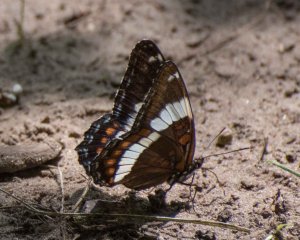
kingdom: Animalia
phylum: Arthropoda
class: Insecta
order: Lepidoptera
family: Nymphalidae
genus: Limenitis
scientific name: Limenitis arthemis
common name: Red-spotted Admiral
